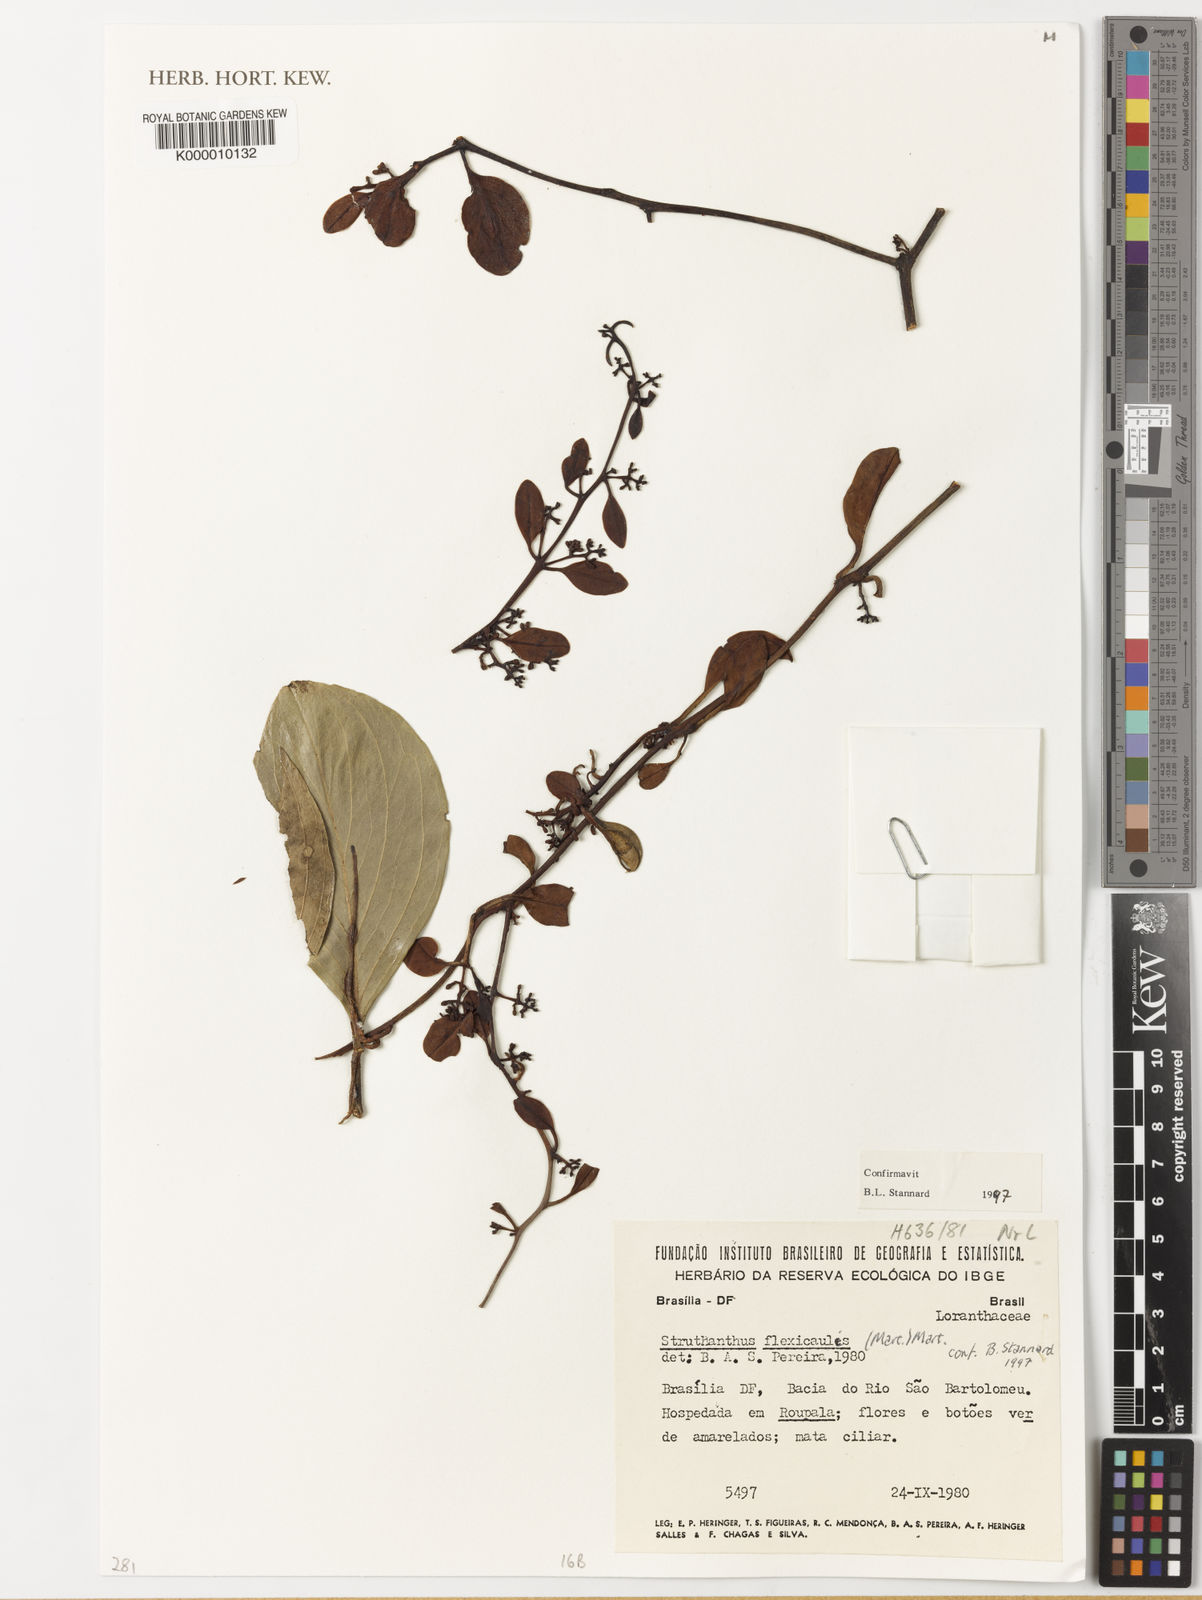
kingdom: Plantae
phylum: Tracheophyta
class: Magnoliopsida
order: Santalales
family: Loranthaceae
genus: Struthanthus
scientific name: Struthanthus flexicaulis
